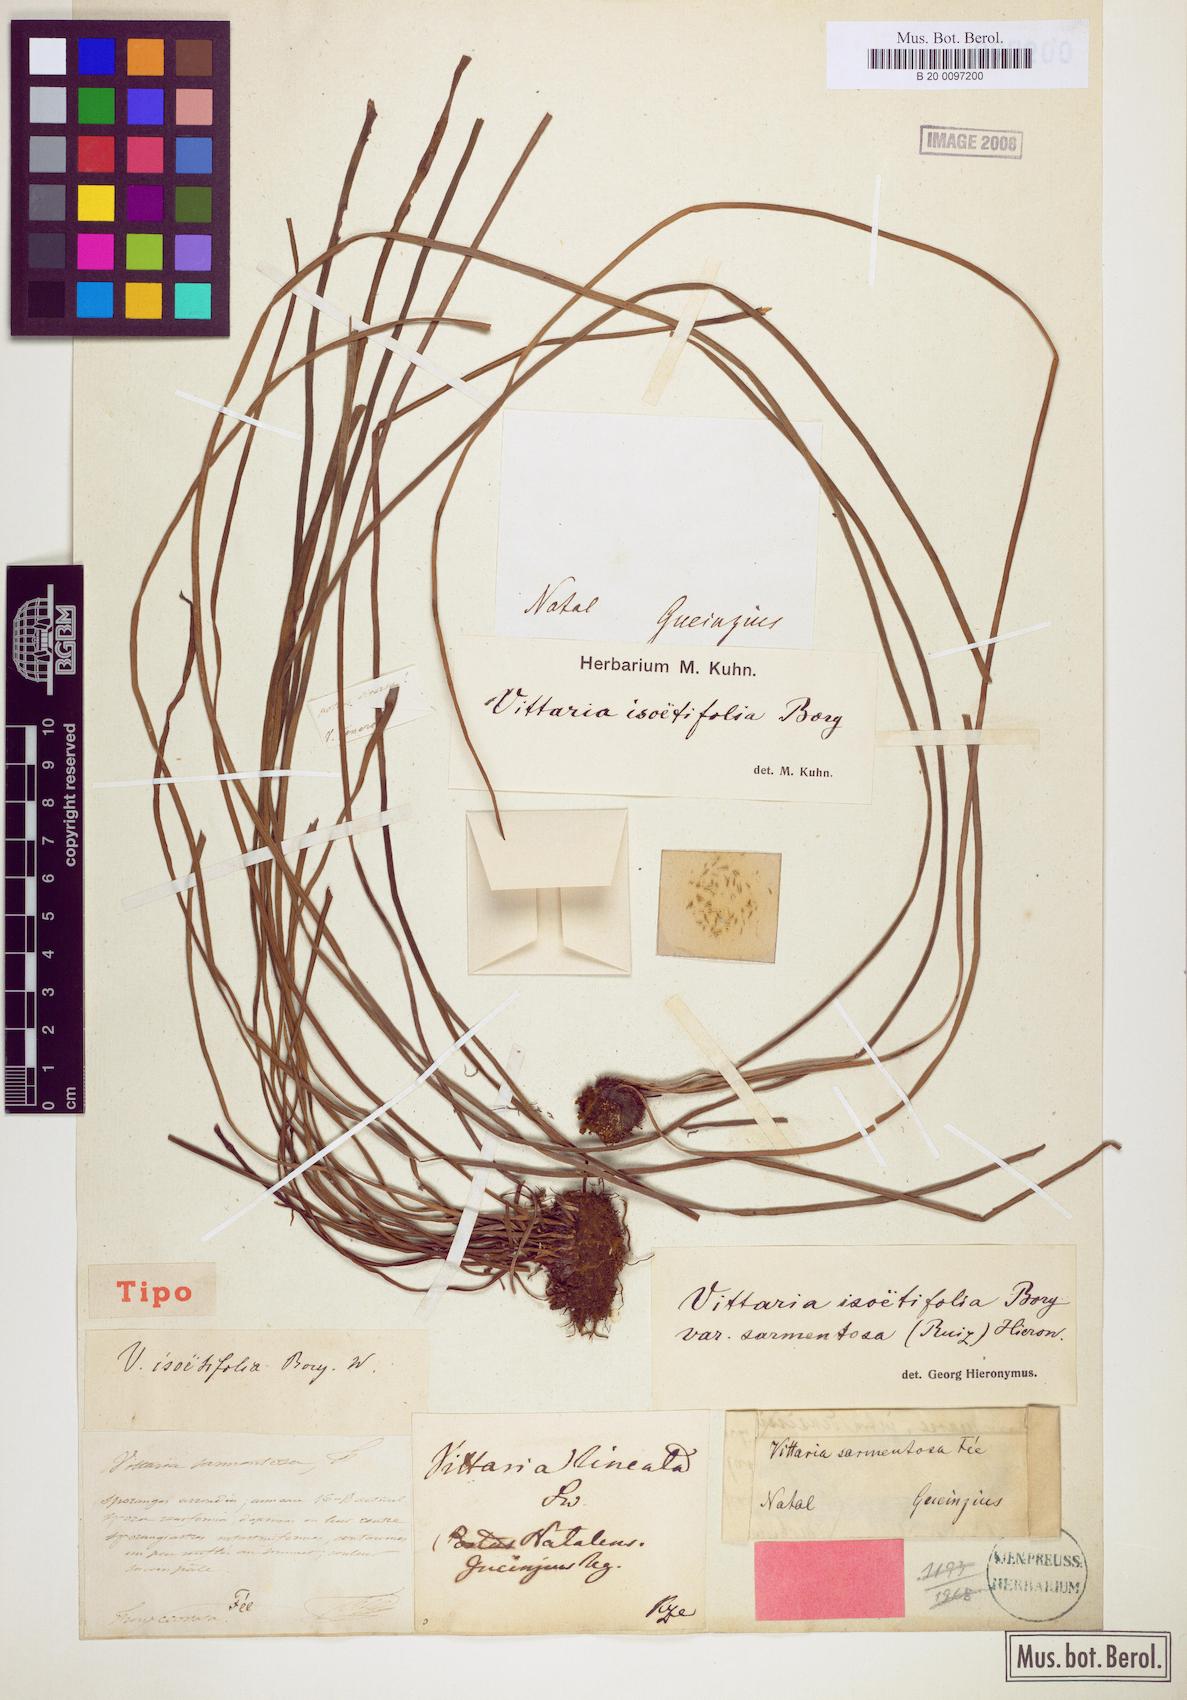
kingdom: Plantae
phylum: Tracheophyta
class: Polypodiopsida
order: Polypodiales
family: Pteridaceae
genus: Vittaria
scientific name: Vittaria isoetifolia
